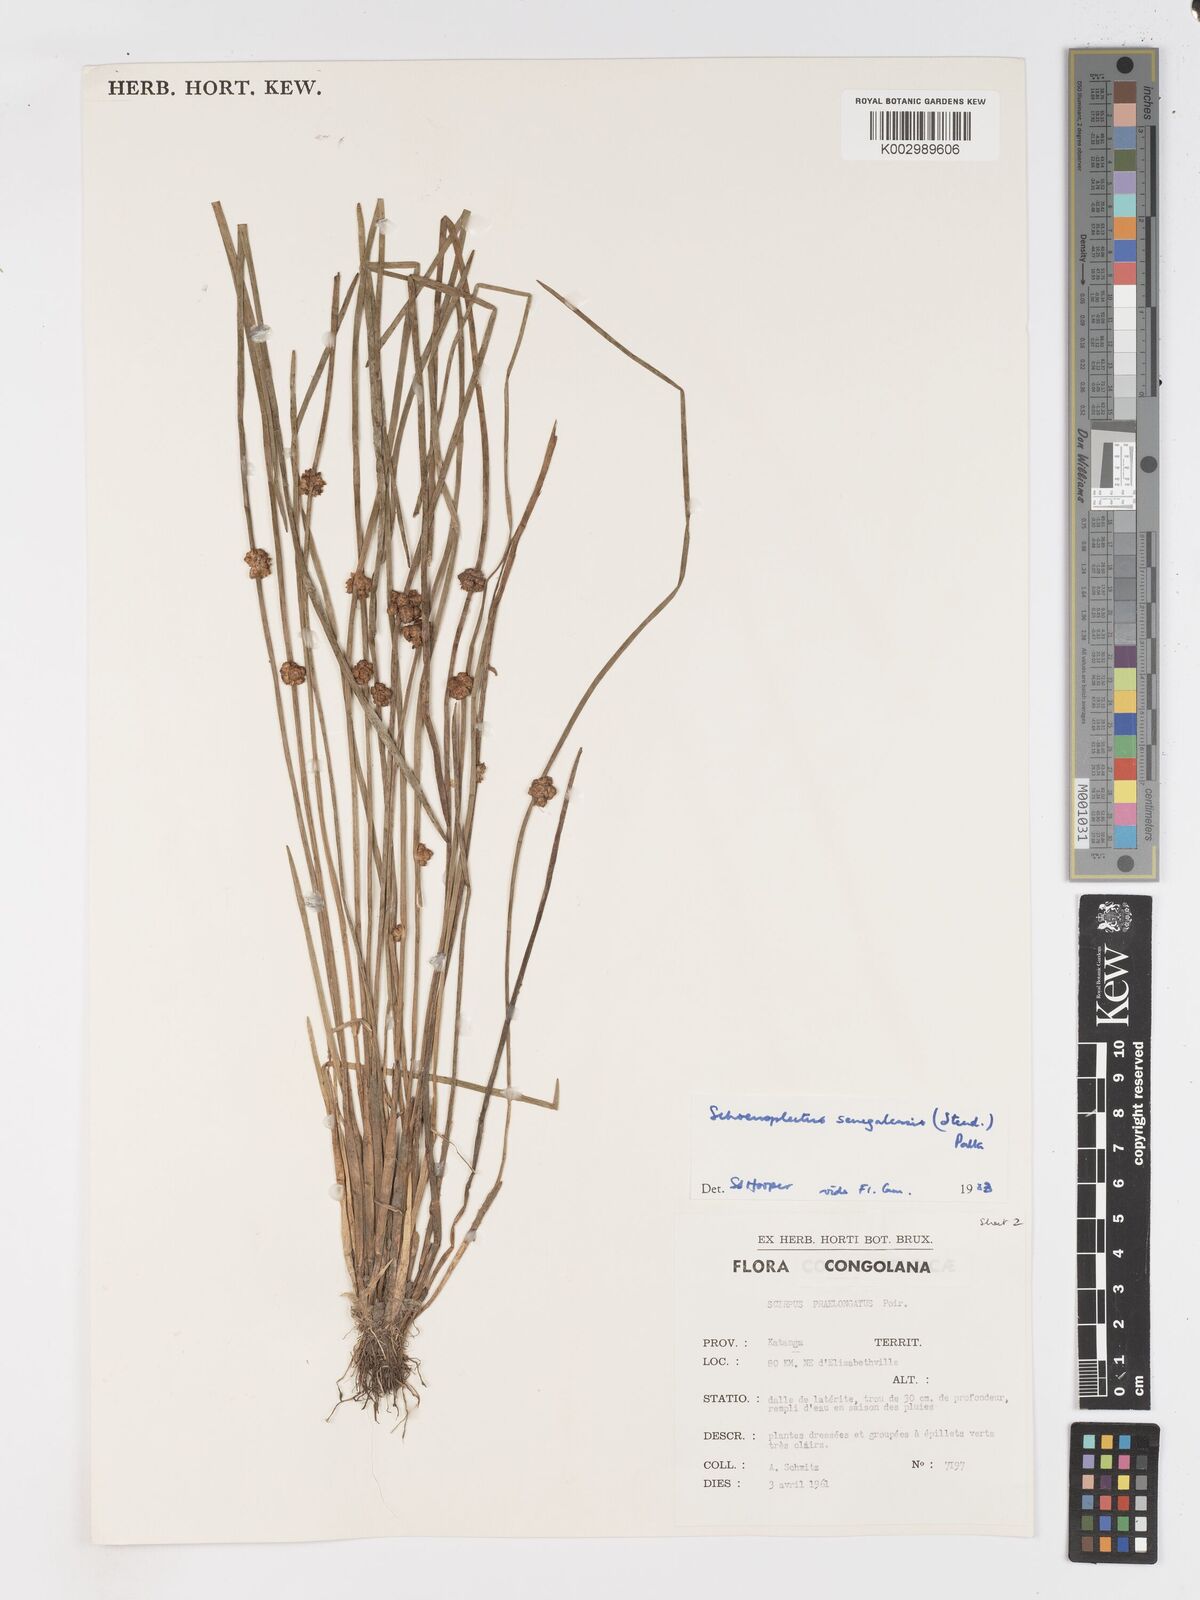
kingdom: Plantae
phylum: Tracheophyta
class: Liliopsida
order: Poales
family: Cyperaceae
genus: Schoenoplectiella
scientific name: Schoenoplectiella senegalensis
